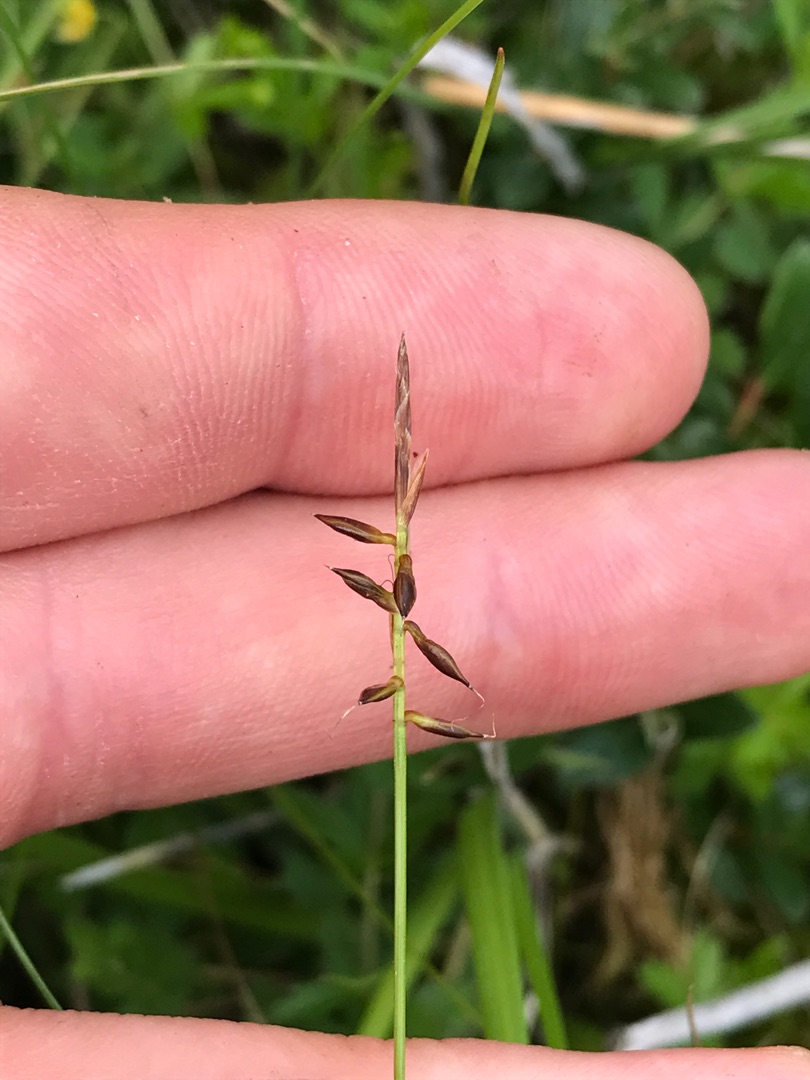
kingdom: Plantae
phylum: Tracheophyta
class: Liliopsida
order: Poales
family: Cyperaceae
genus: Carex
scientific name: Carex pulicaris
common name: Loppe-star
